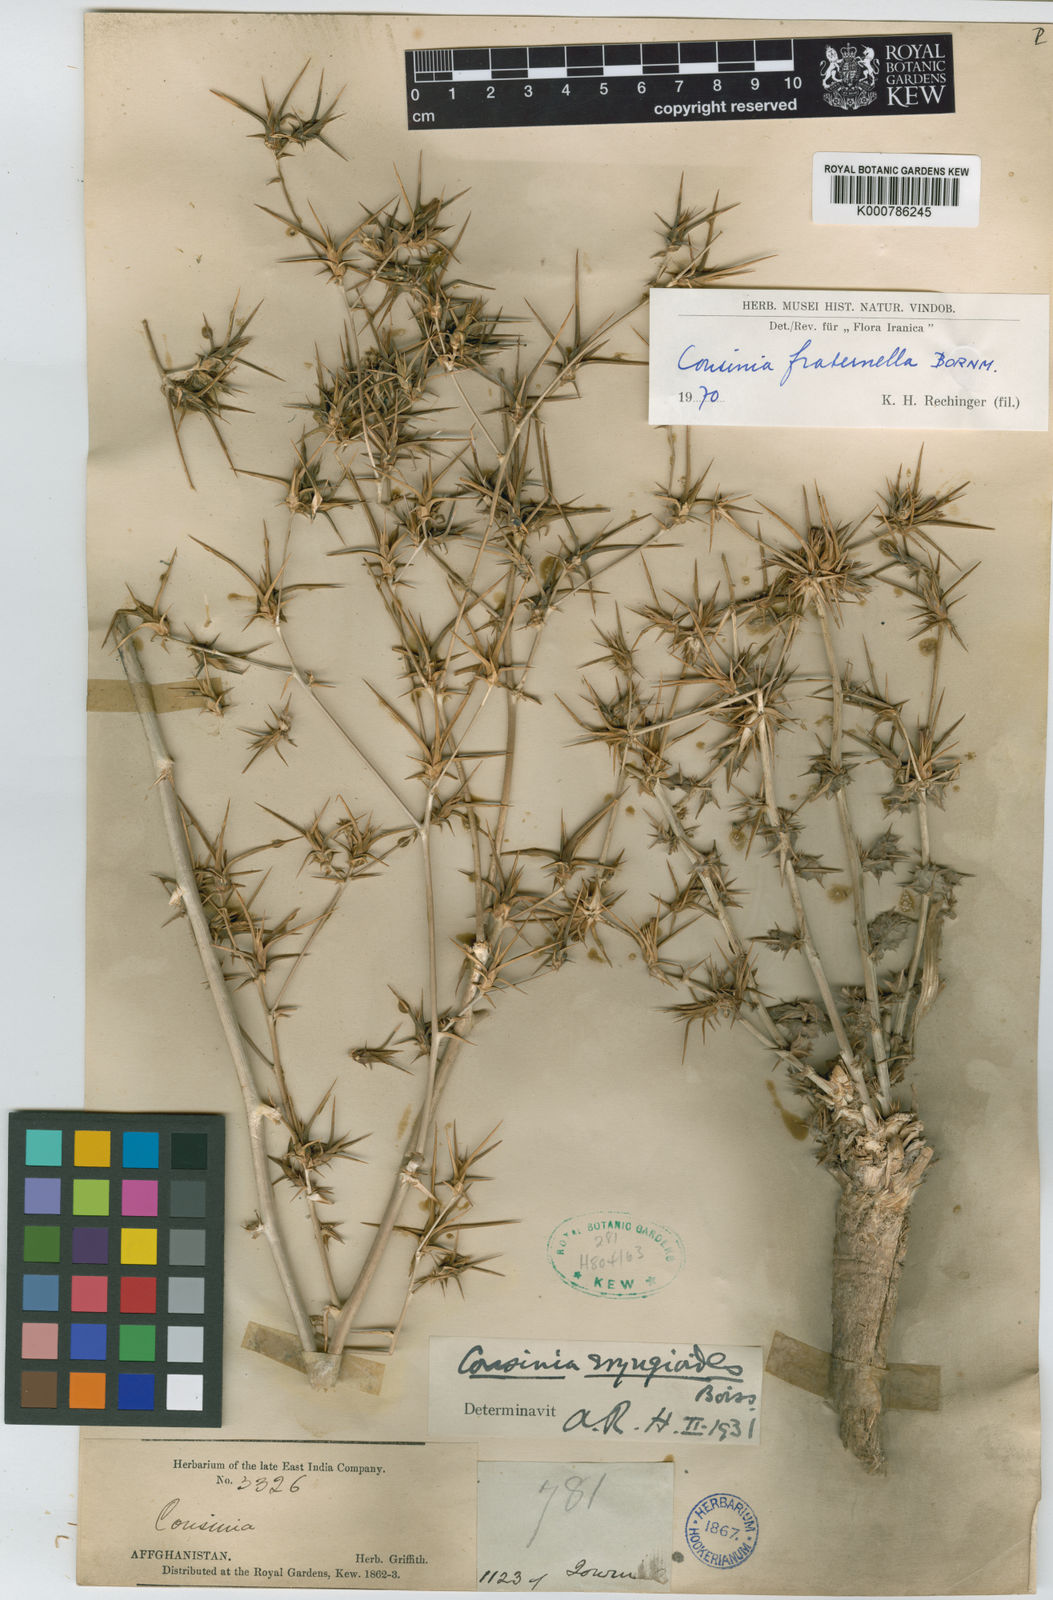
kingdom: Plantae
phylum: Tracheophyta
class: Magnoliopsida
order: Asterales
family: Asteraceae
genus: Cousinia
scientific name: Cousinia fraternella
